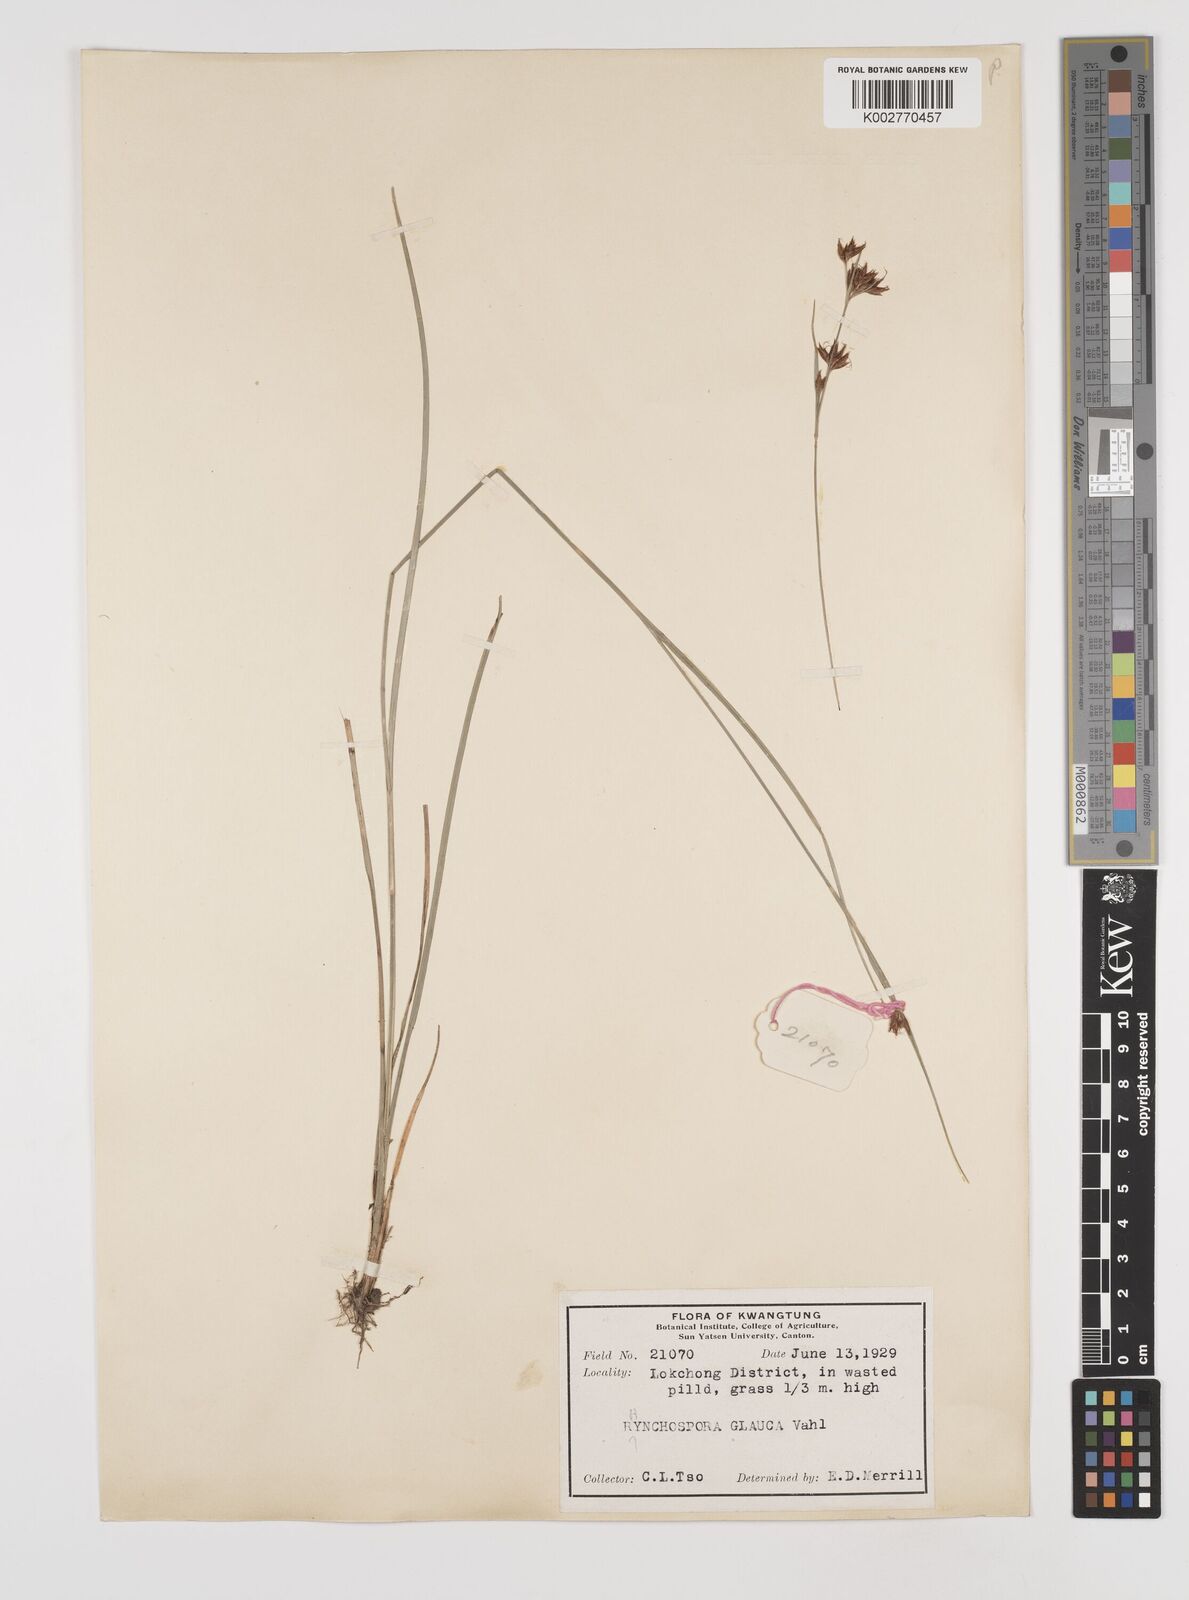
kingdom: Plantae
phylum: Tracheophyta
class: Liliopsida
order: Poales
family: Cyperaceae
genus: Rhynchospora
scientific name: Rhynchospora
